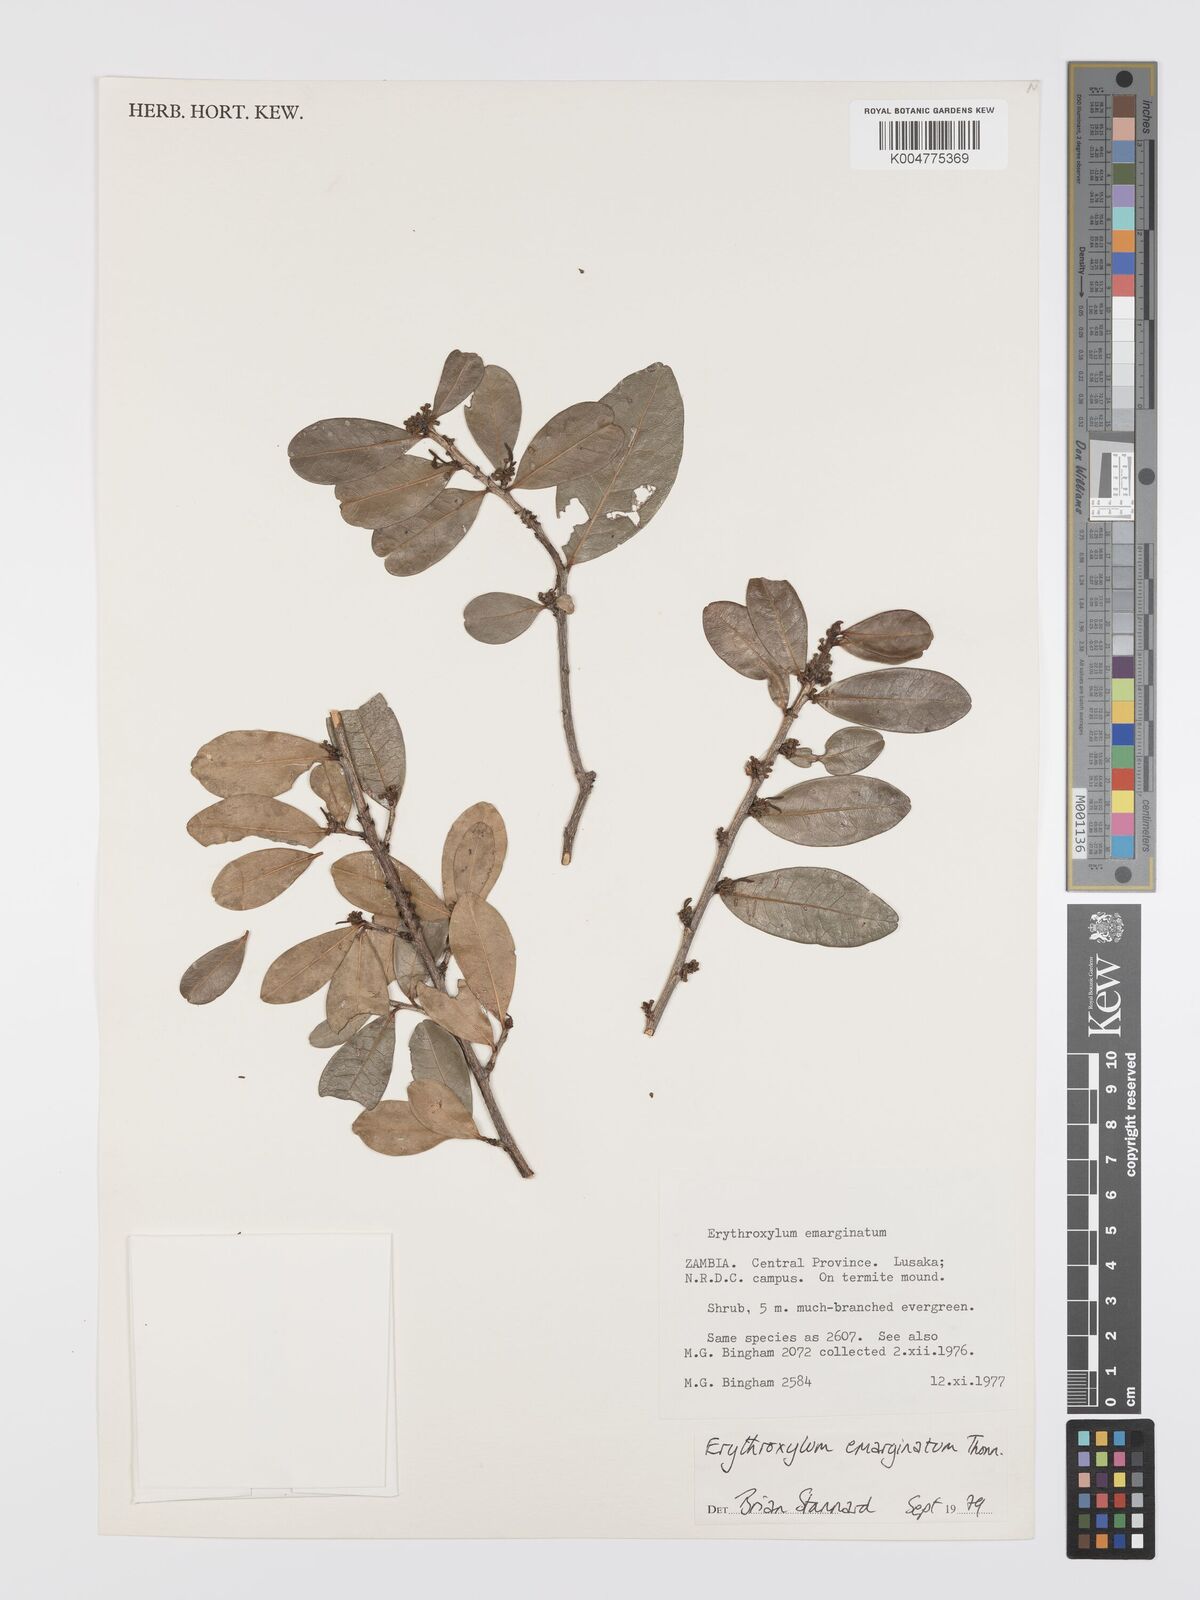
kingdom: Plantae
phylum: Tracheophyta
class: Magnoliopsida
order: Malpighiales
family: Erythroxylaceae
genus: Erythroxylum
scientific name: Erythroxylum
